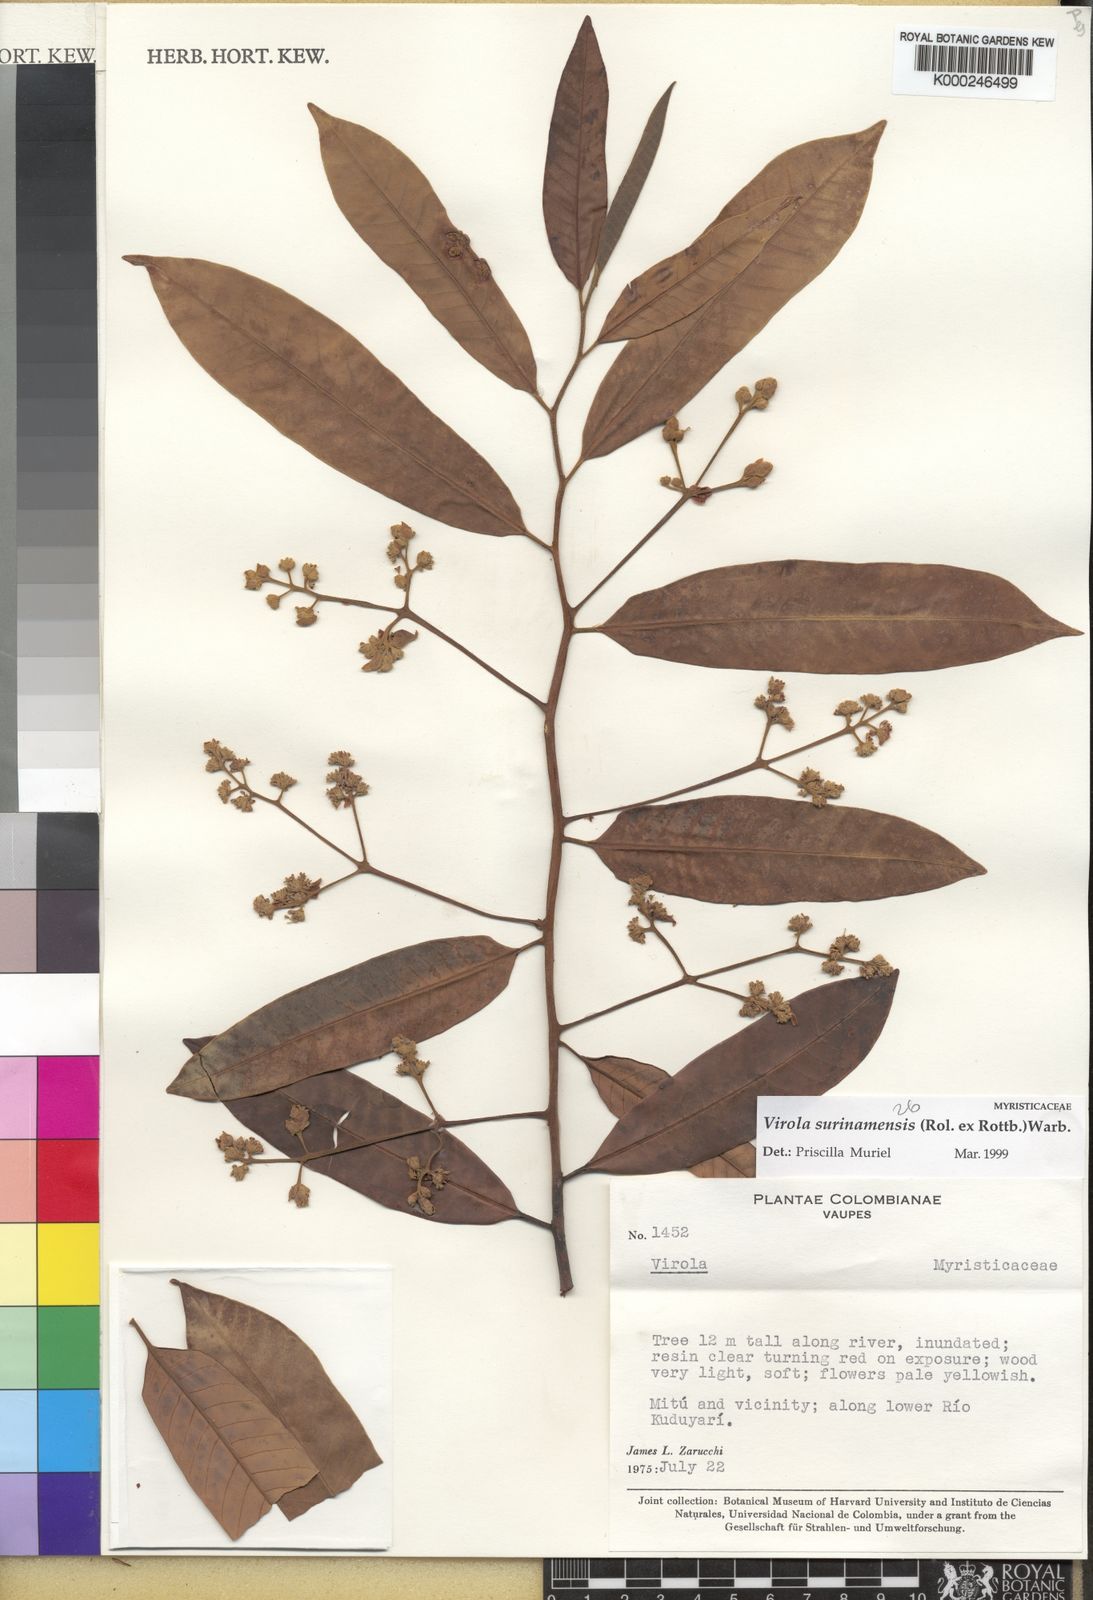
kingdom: Plantae
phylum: Tracheophyta
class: Magnoliopsida
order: Magnoliales
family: Myristicaceae
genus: Virola
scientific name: Virola surinamensis
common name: Baboonwood
